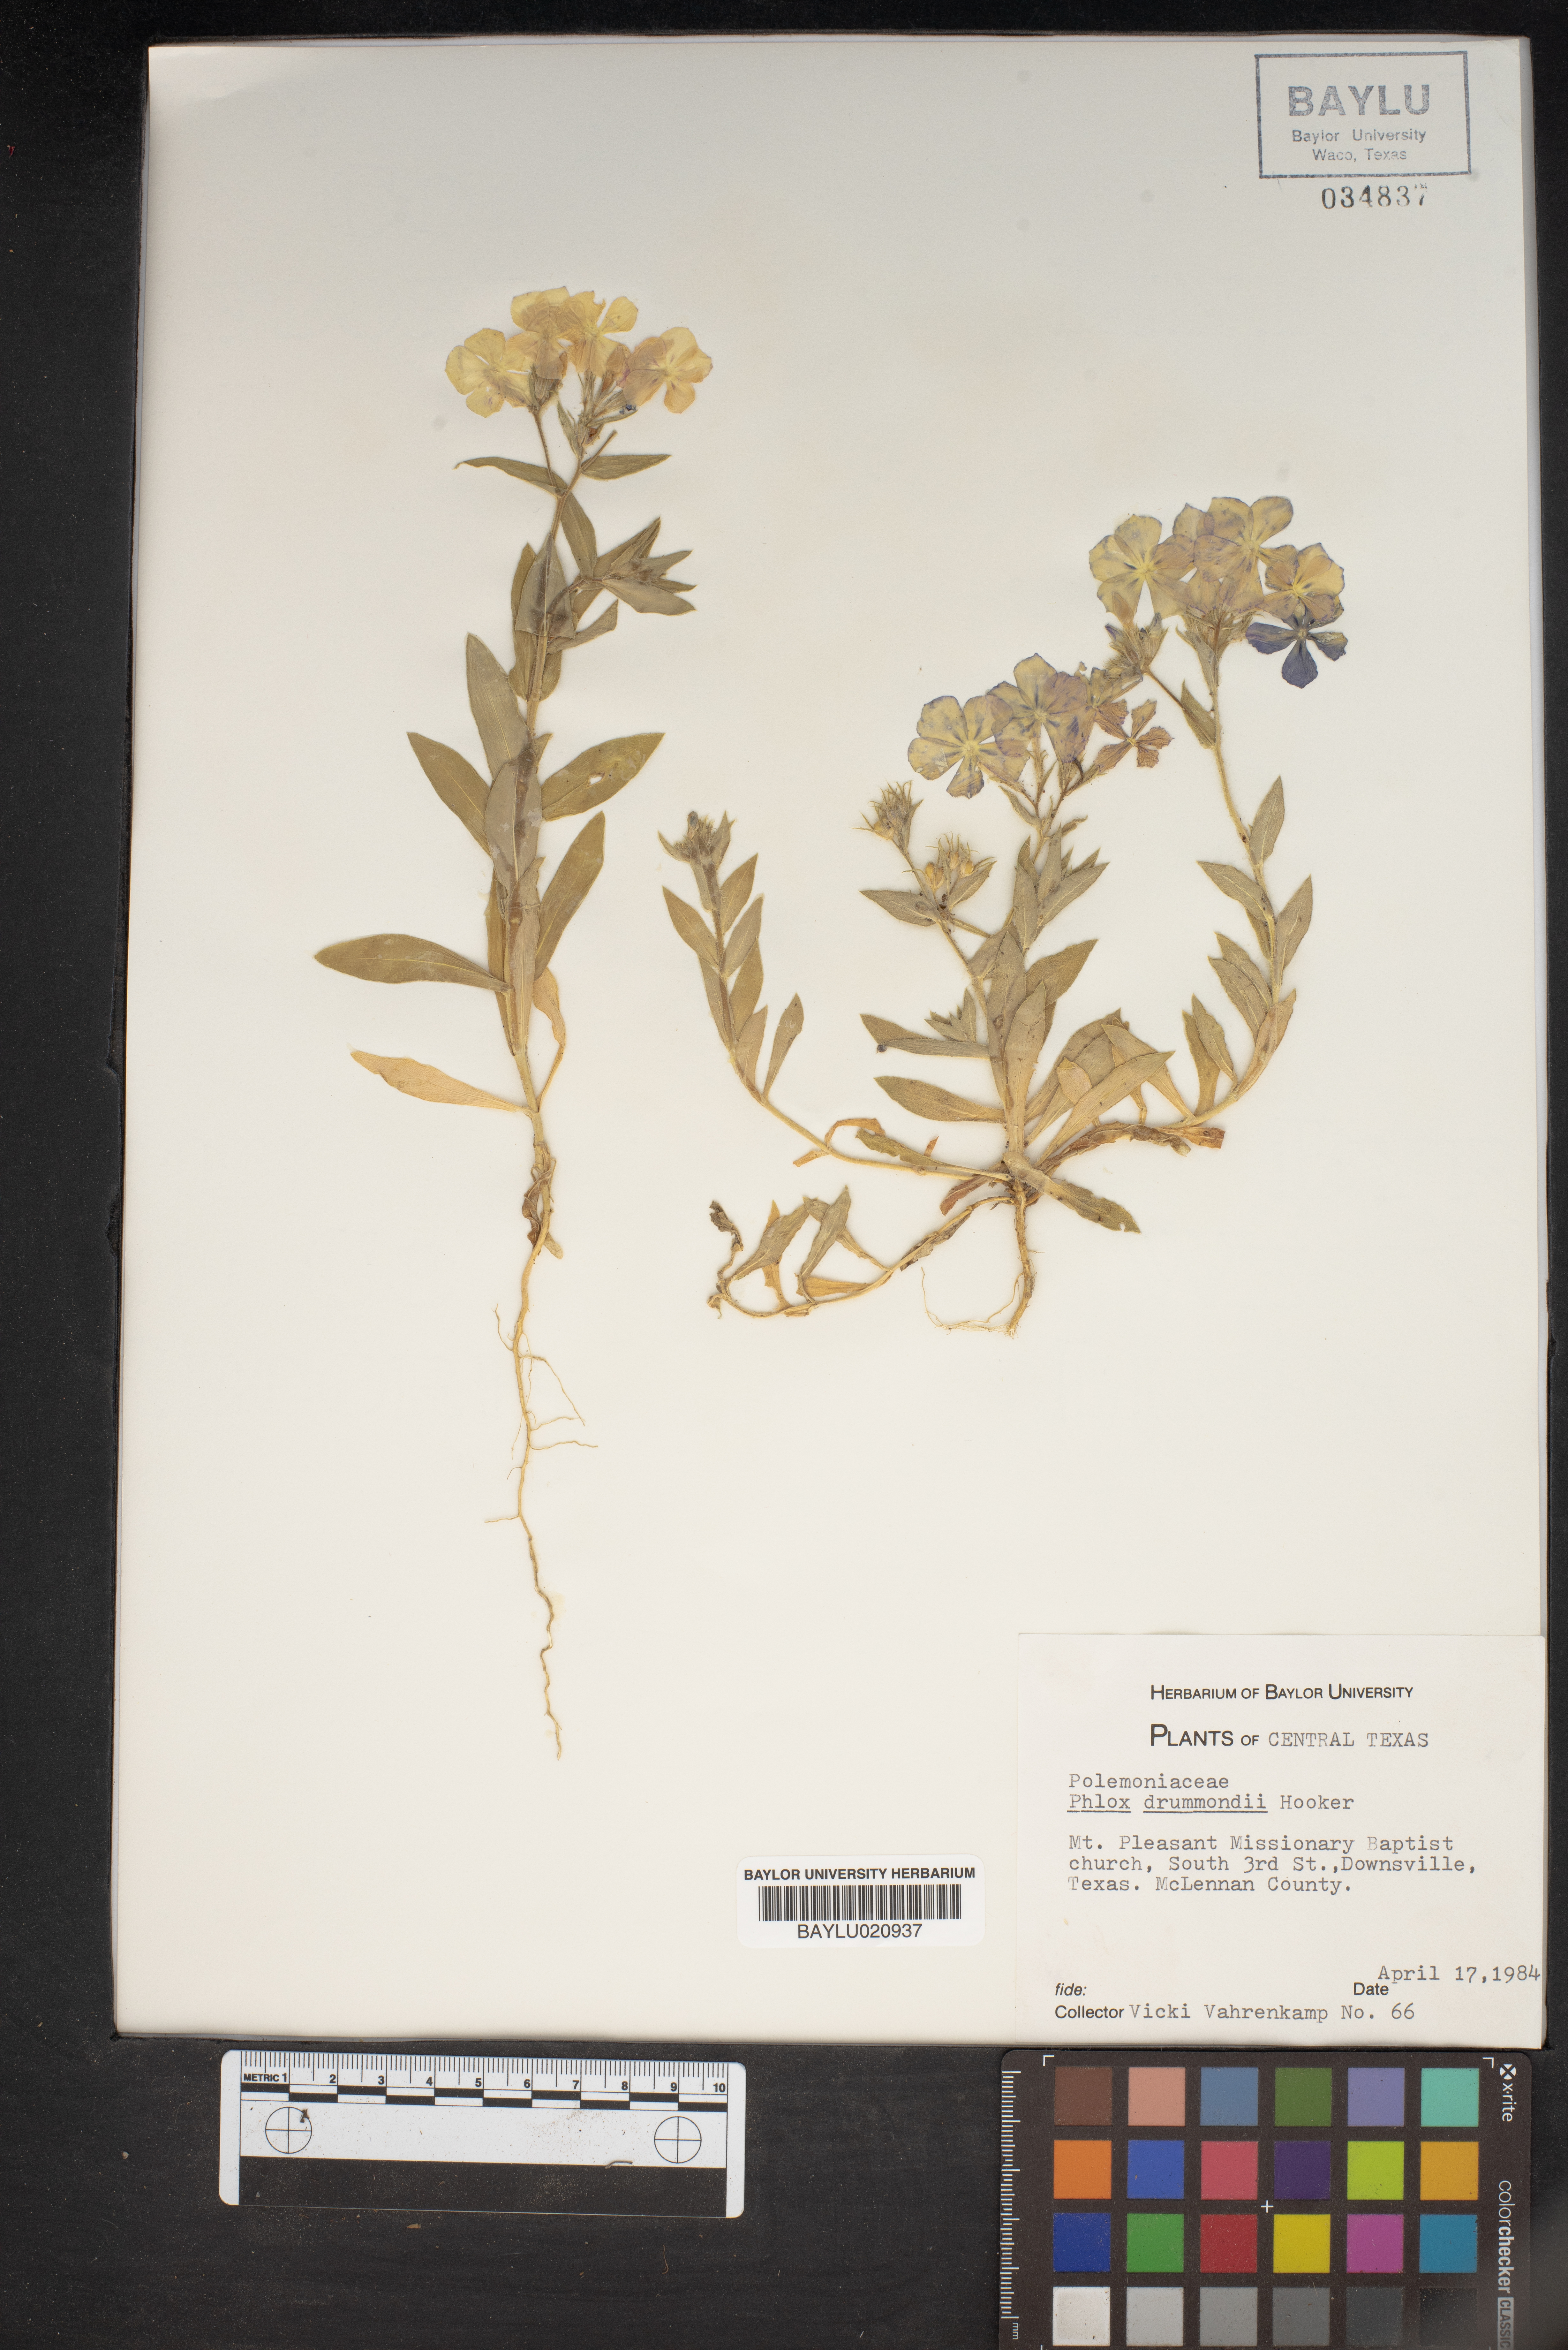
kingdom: Plantae
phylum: Tracheophyta
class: Magnoliopsida
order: Ericales
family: Polemoniaceae
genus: Phlox
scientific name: Phlox drummondii
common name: Drummond's phlox
